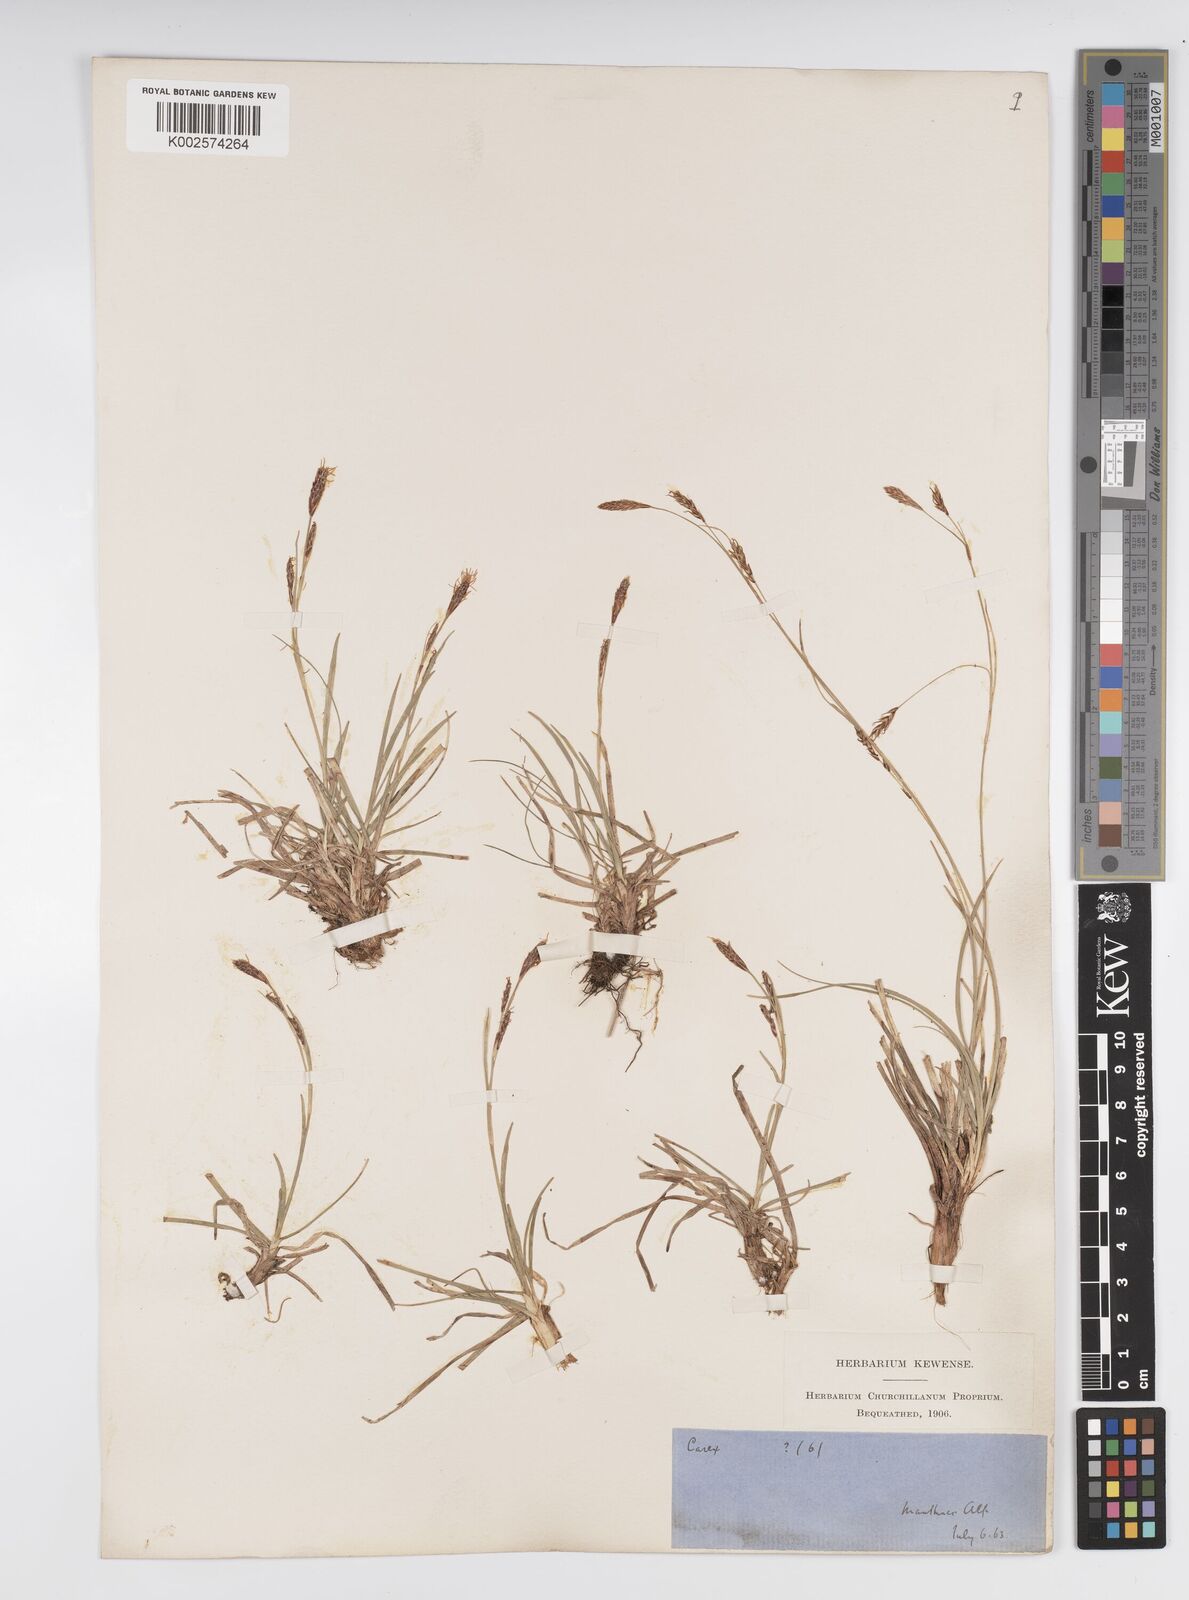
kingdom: Plantae
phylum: Tracheophyta
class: Liliopsida
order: Poales
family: Cyperaceae
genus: Carex
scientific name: Carex frigida
